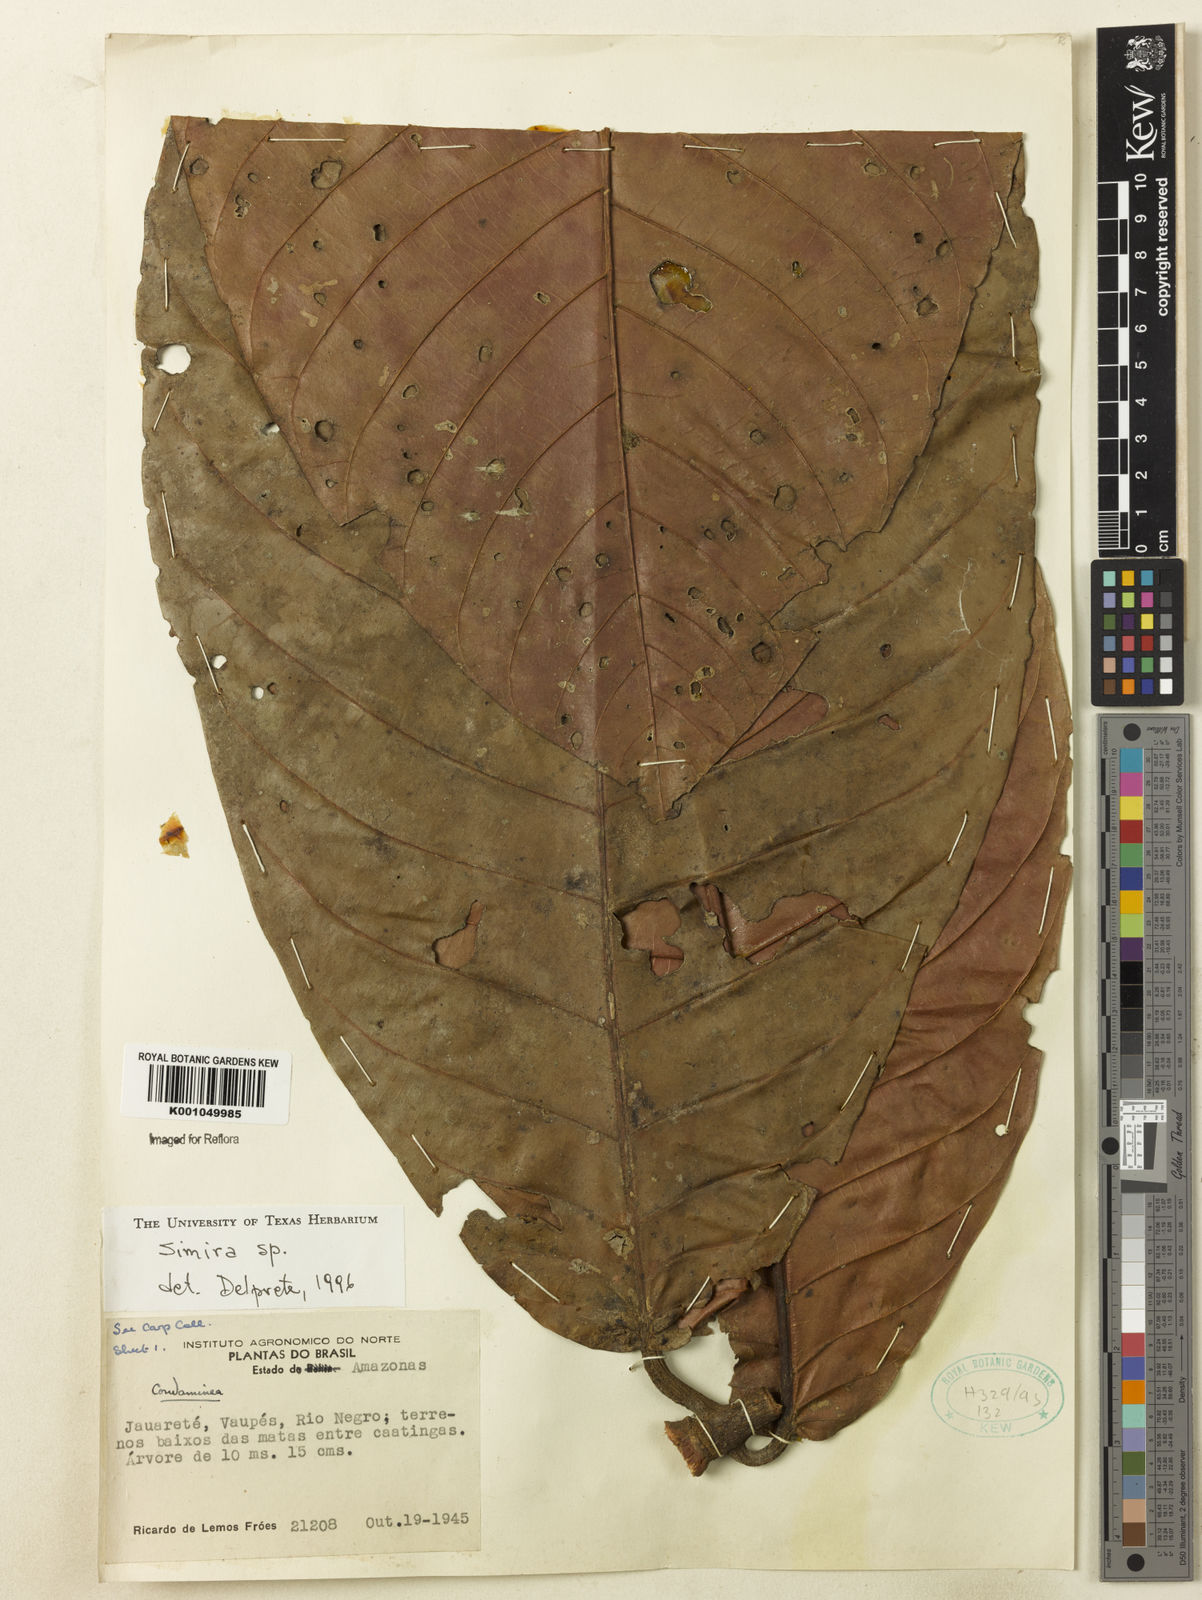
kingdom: Plantae
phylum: Tracheophyta
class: Magnoliopsida
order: Gentianales
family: Rubiaceae
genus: Simira
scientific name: Simira
